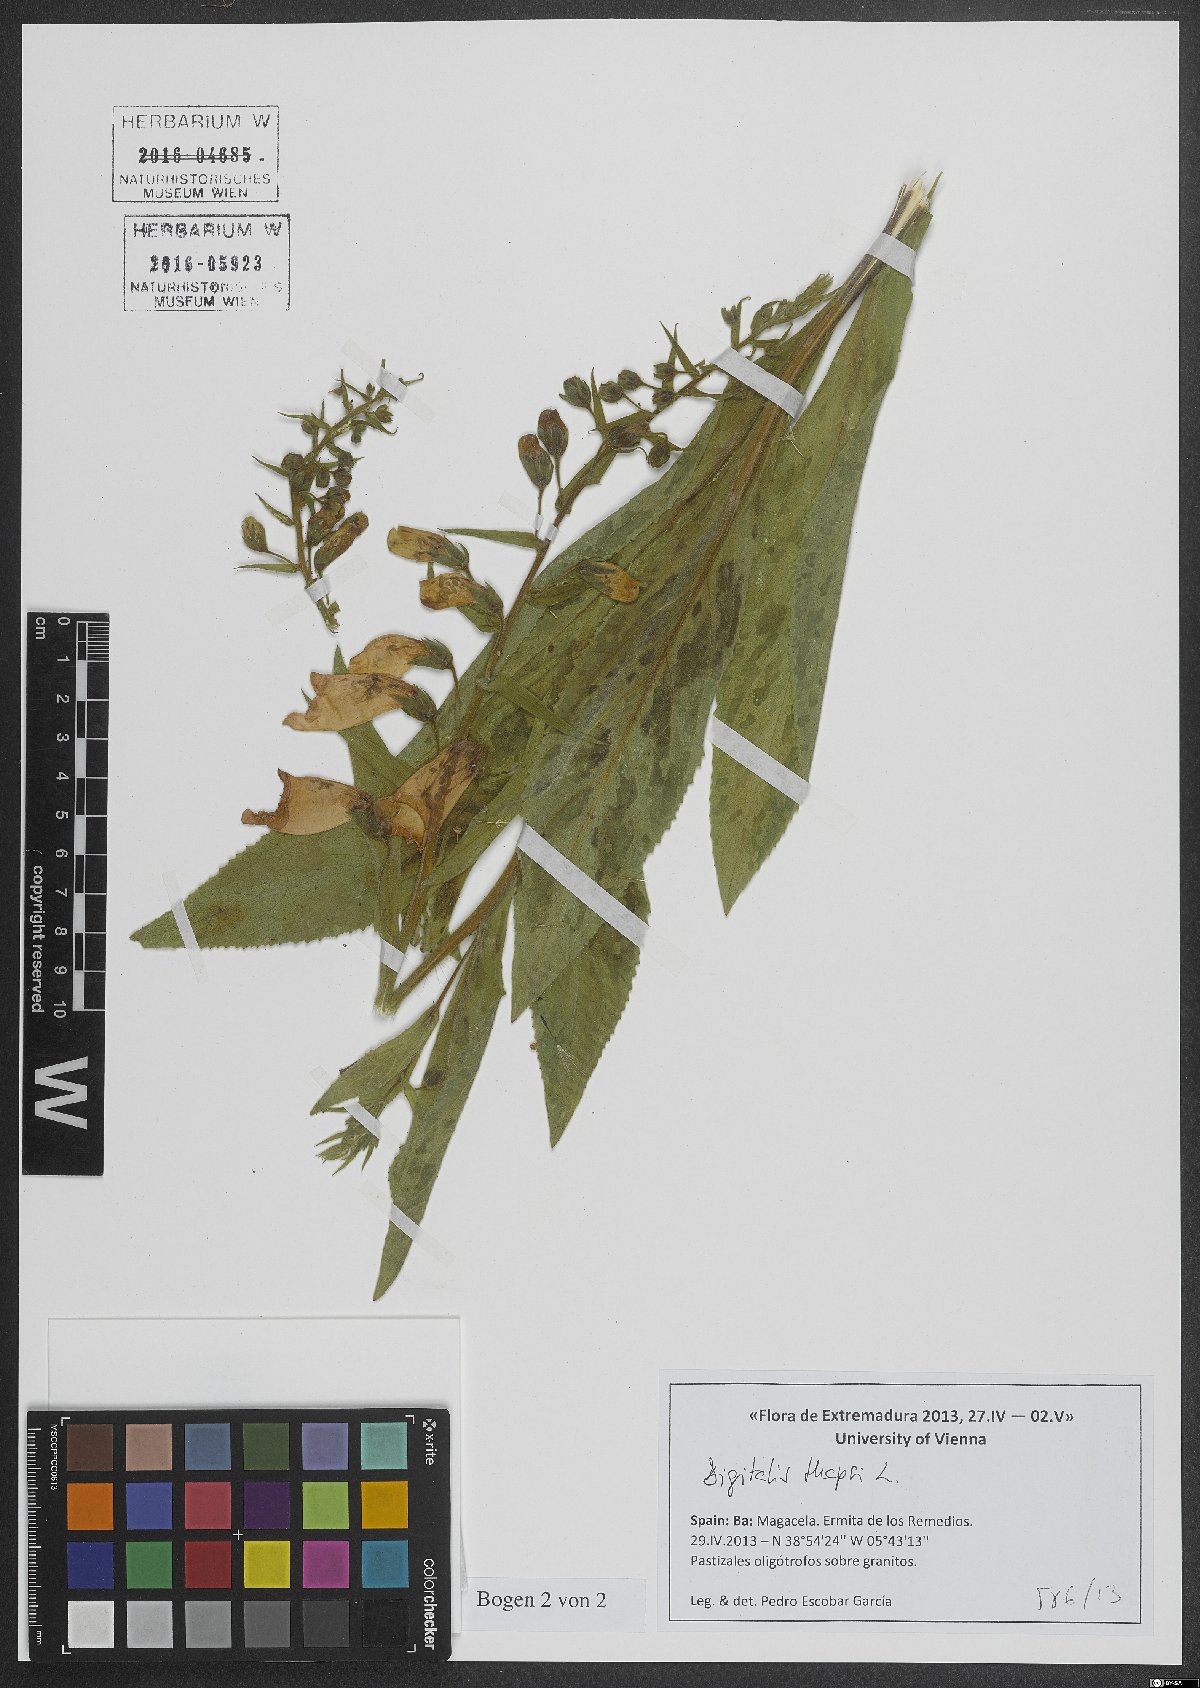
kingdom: Plantae
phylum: Tracheophyta
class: Magnoliopsida
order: Lamiales
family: Plantaginaceae
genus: Digitalis
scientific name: Digitalis thapsi
